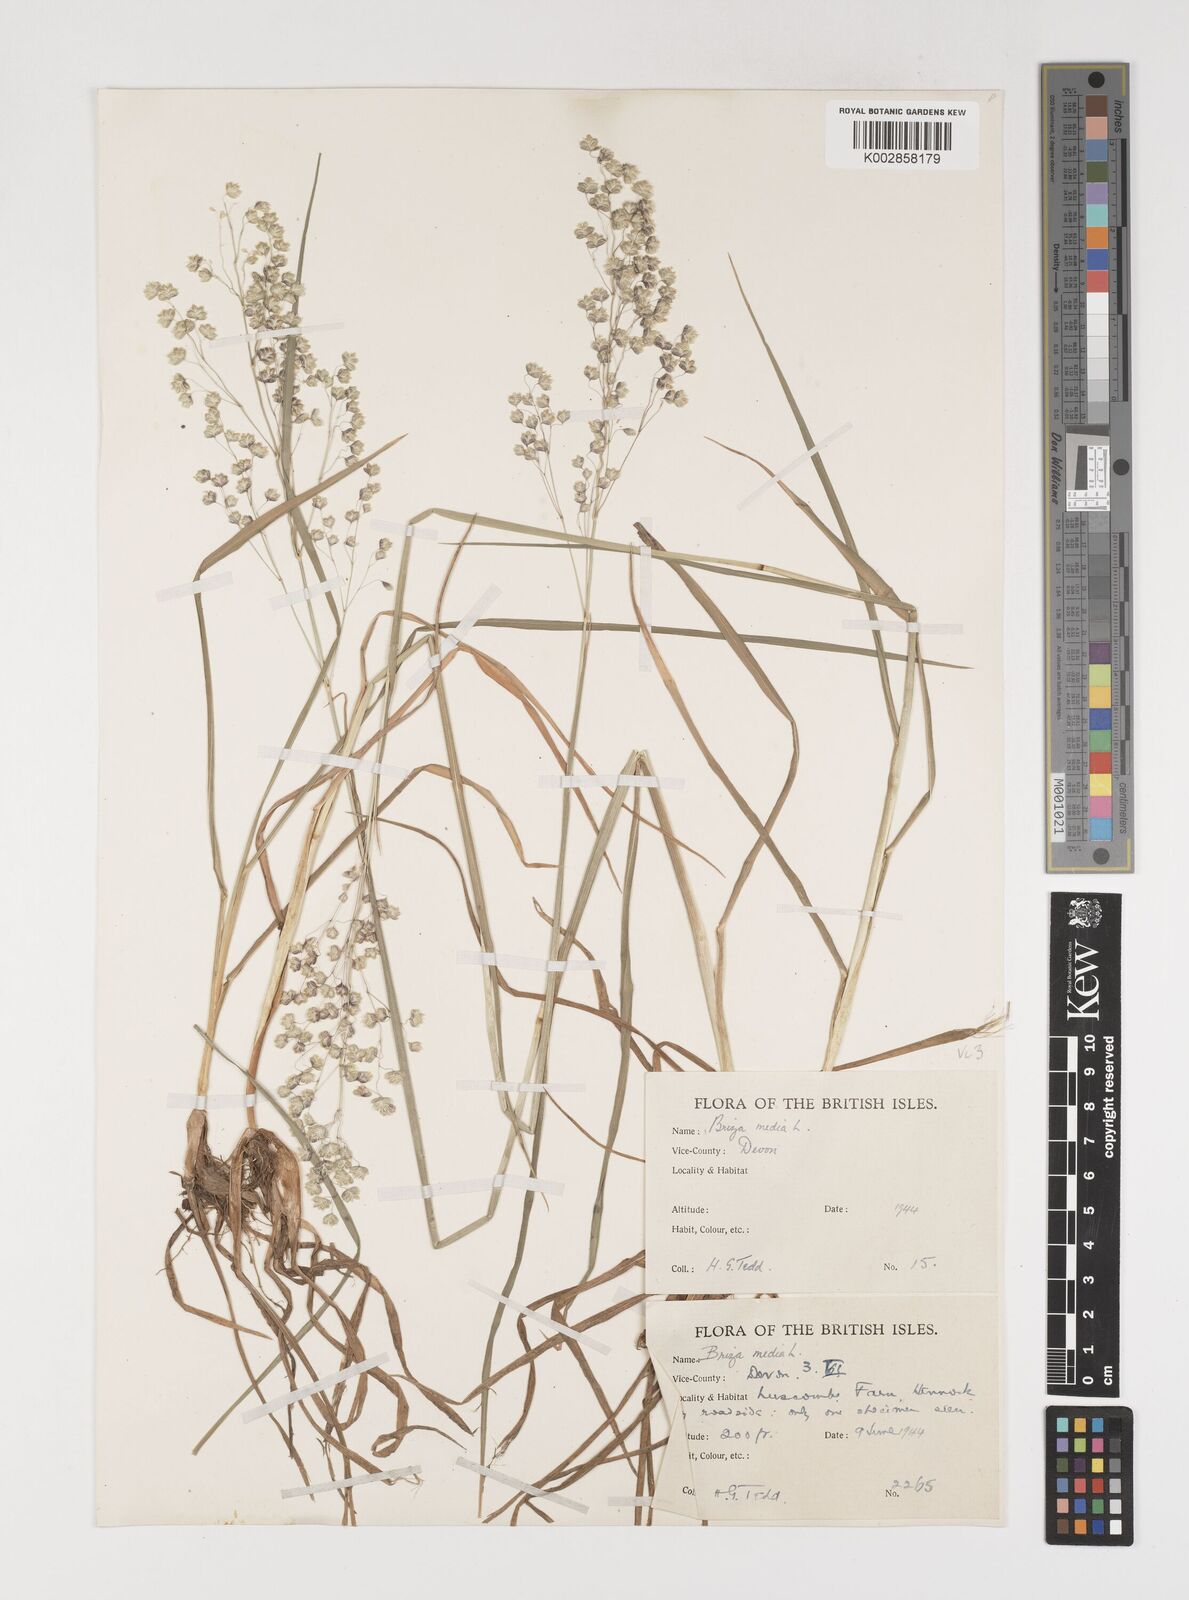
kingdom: Plantae
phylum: Tracheophyta
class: Liliopsida
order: Poales
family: Poaceae
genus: Briza
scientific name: Briza media
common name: Quaking grass
